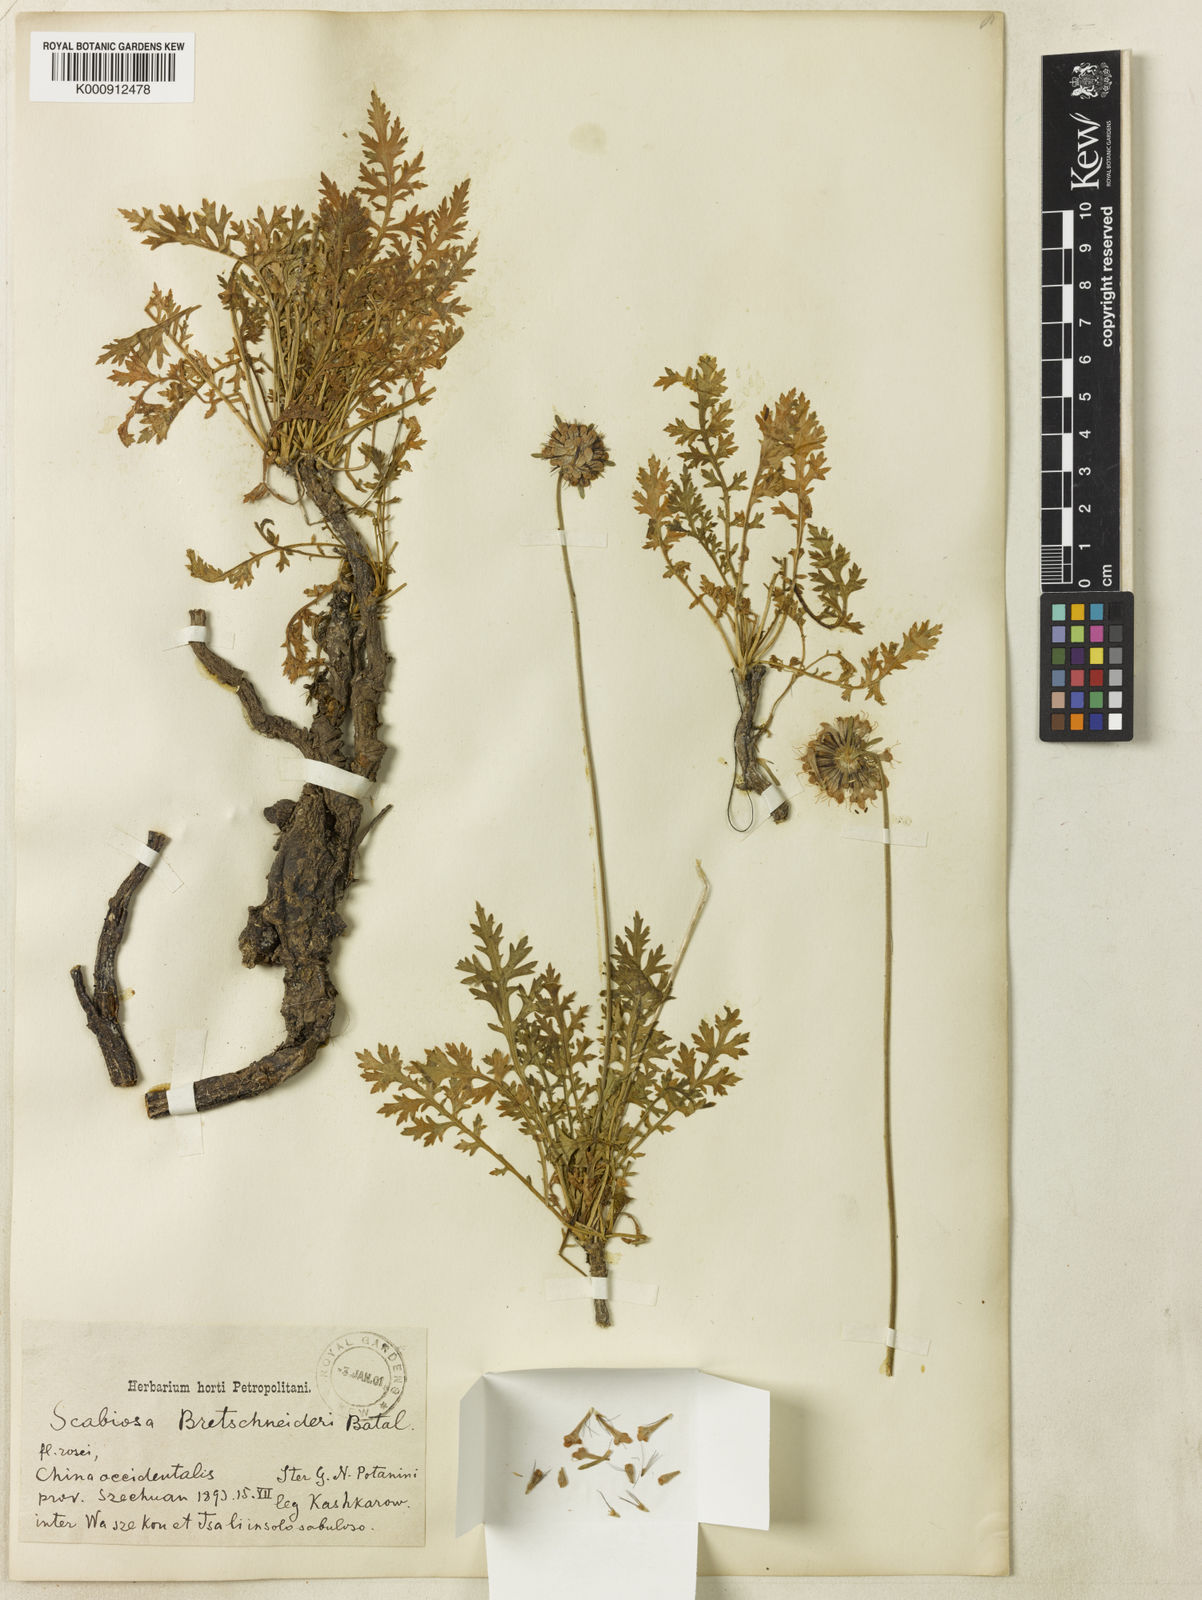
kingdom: Plantae
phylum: Tracheophyta
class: Magnoliopsida
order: Dipsacales
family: Caprifoliaceae
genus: Bassecoia
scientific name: Bassecoia bretschneideri
